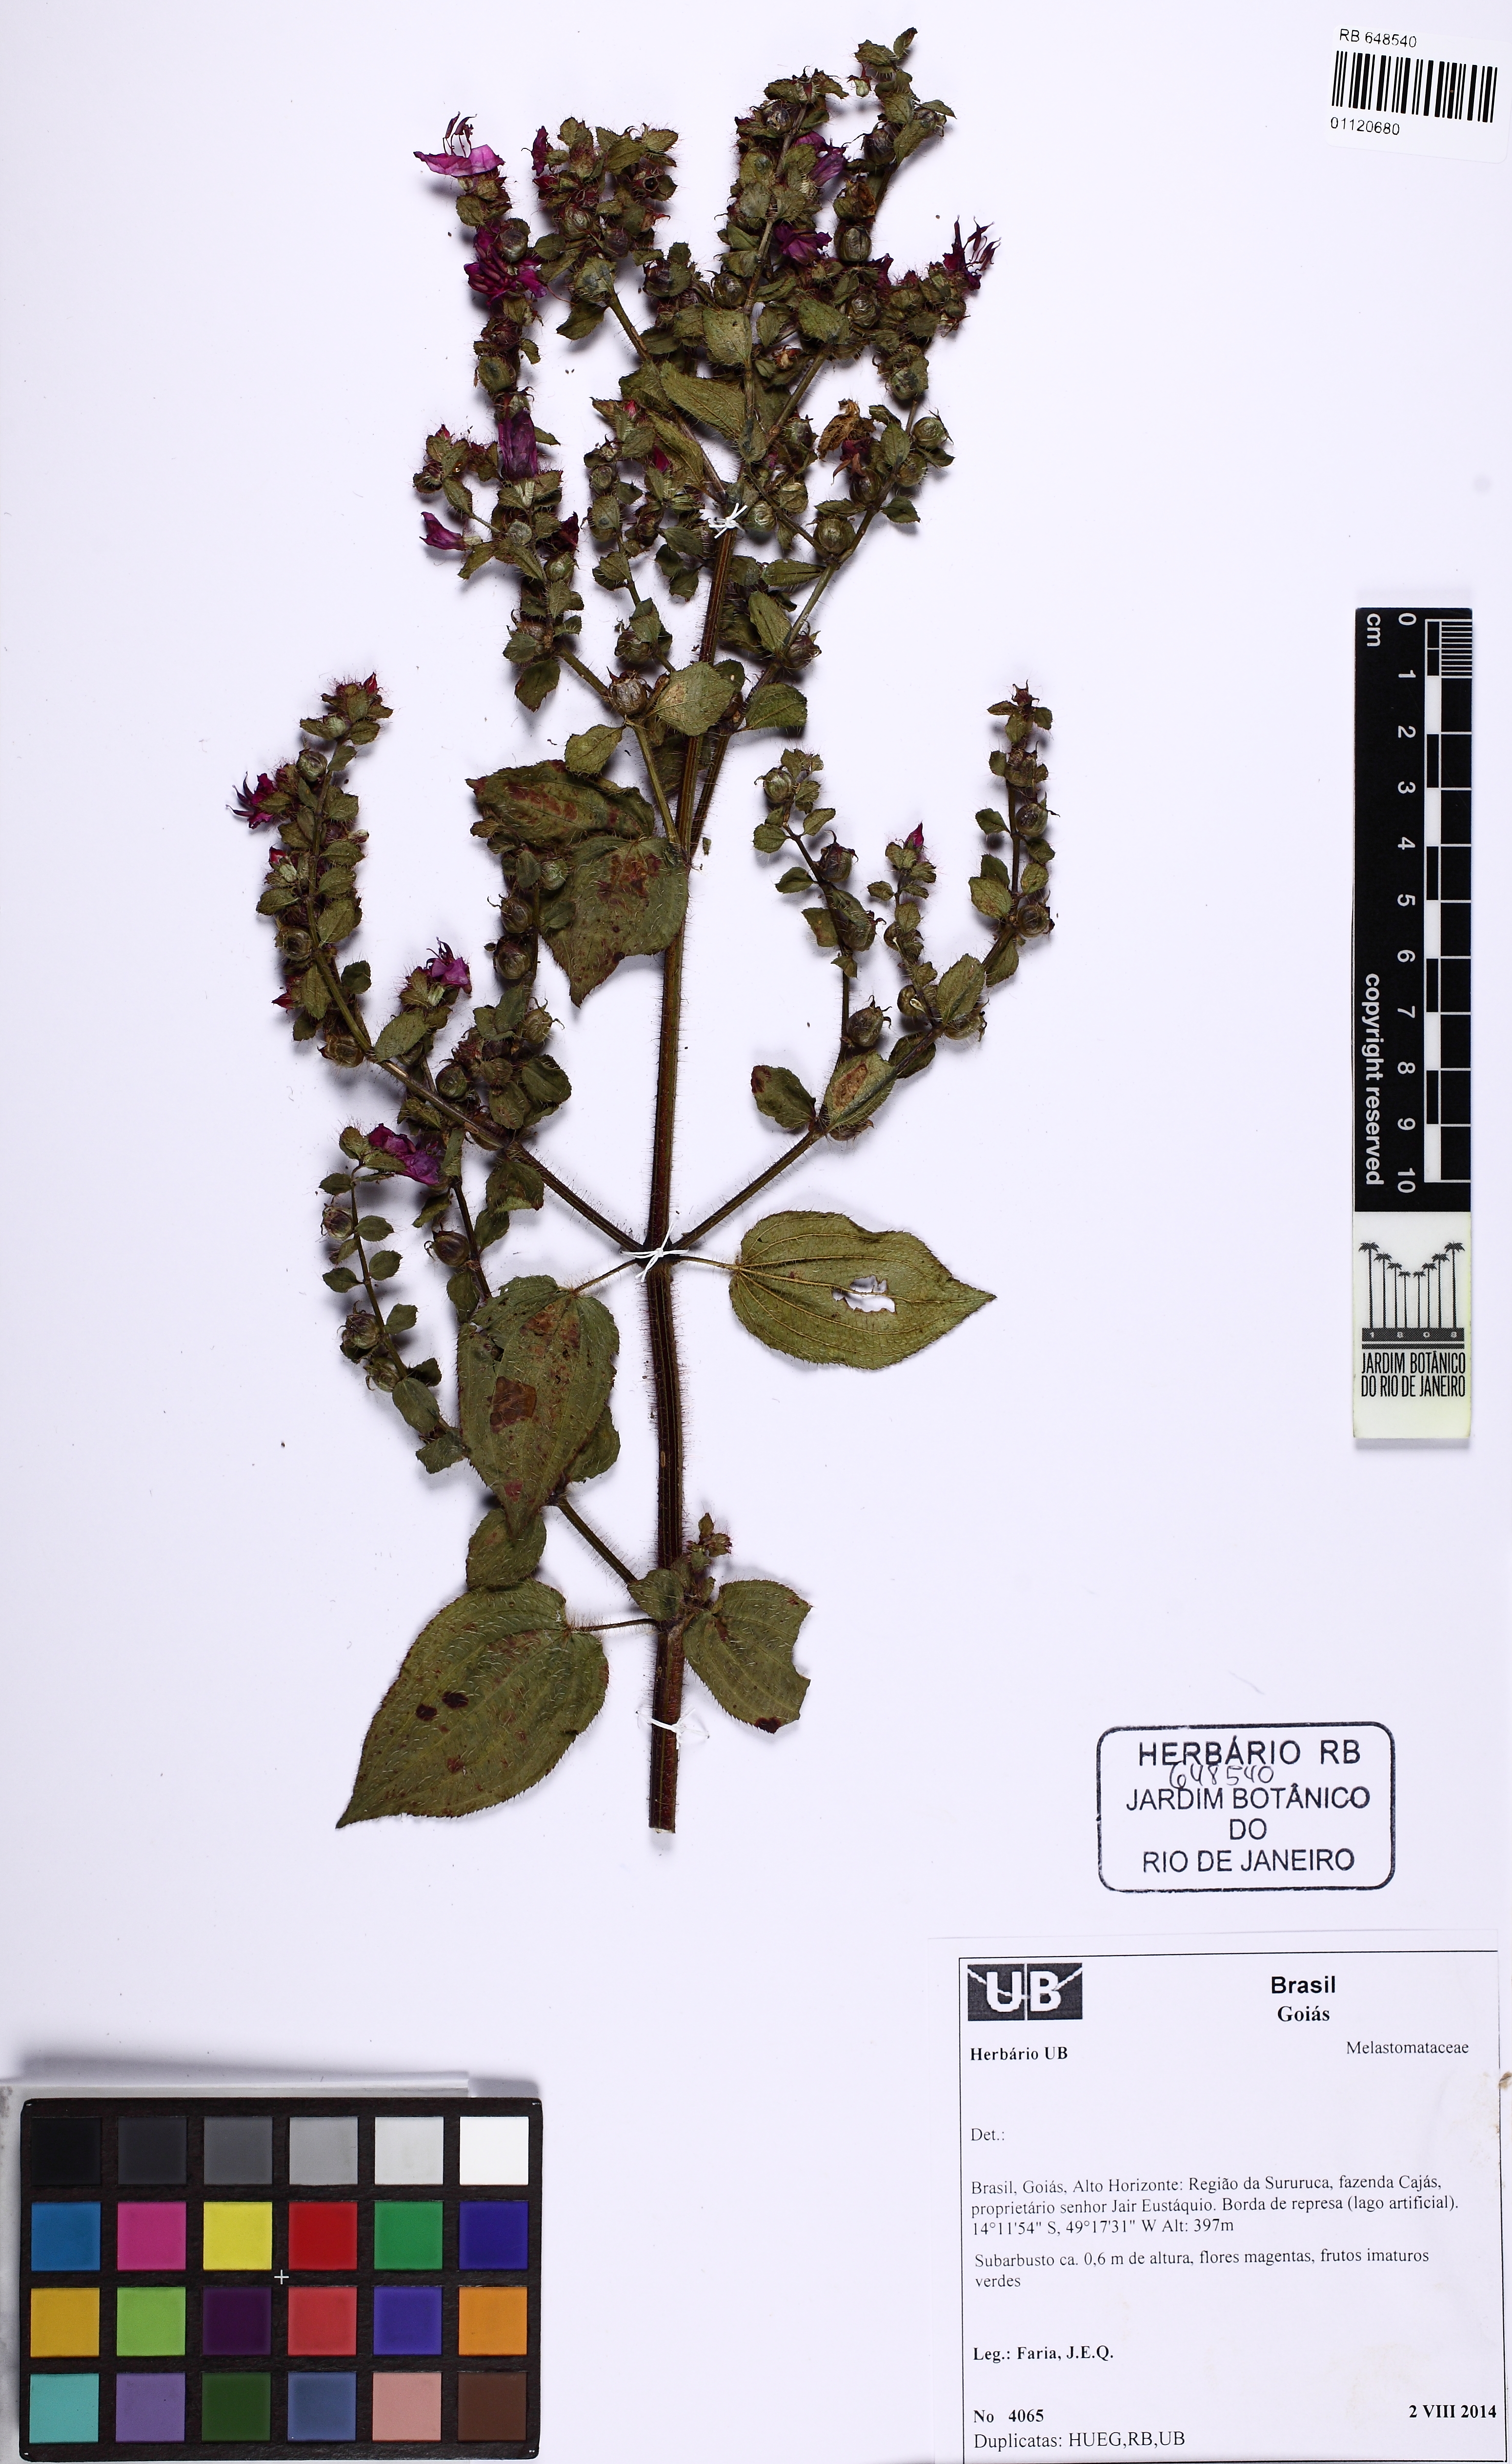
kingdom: Plantae
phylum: Tracheophyta
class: Magnoliopsida
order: Myrtales
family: Melastomataceae
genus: Rhynchanthera
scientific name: Rhynchanthera
